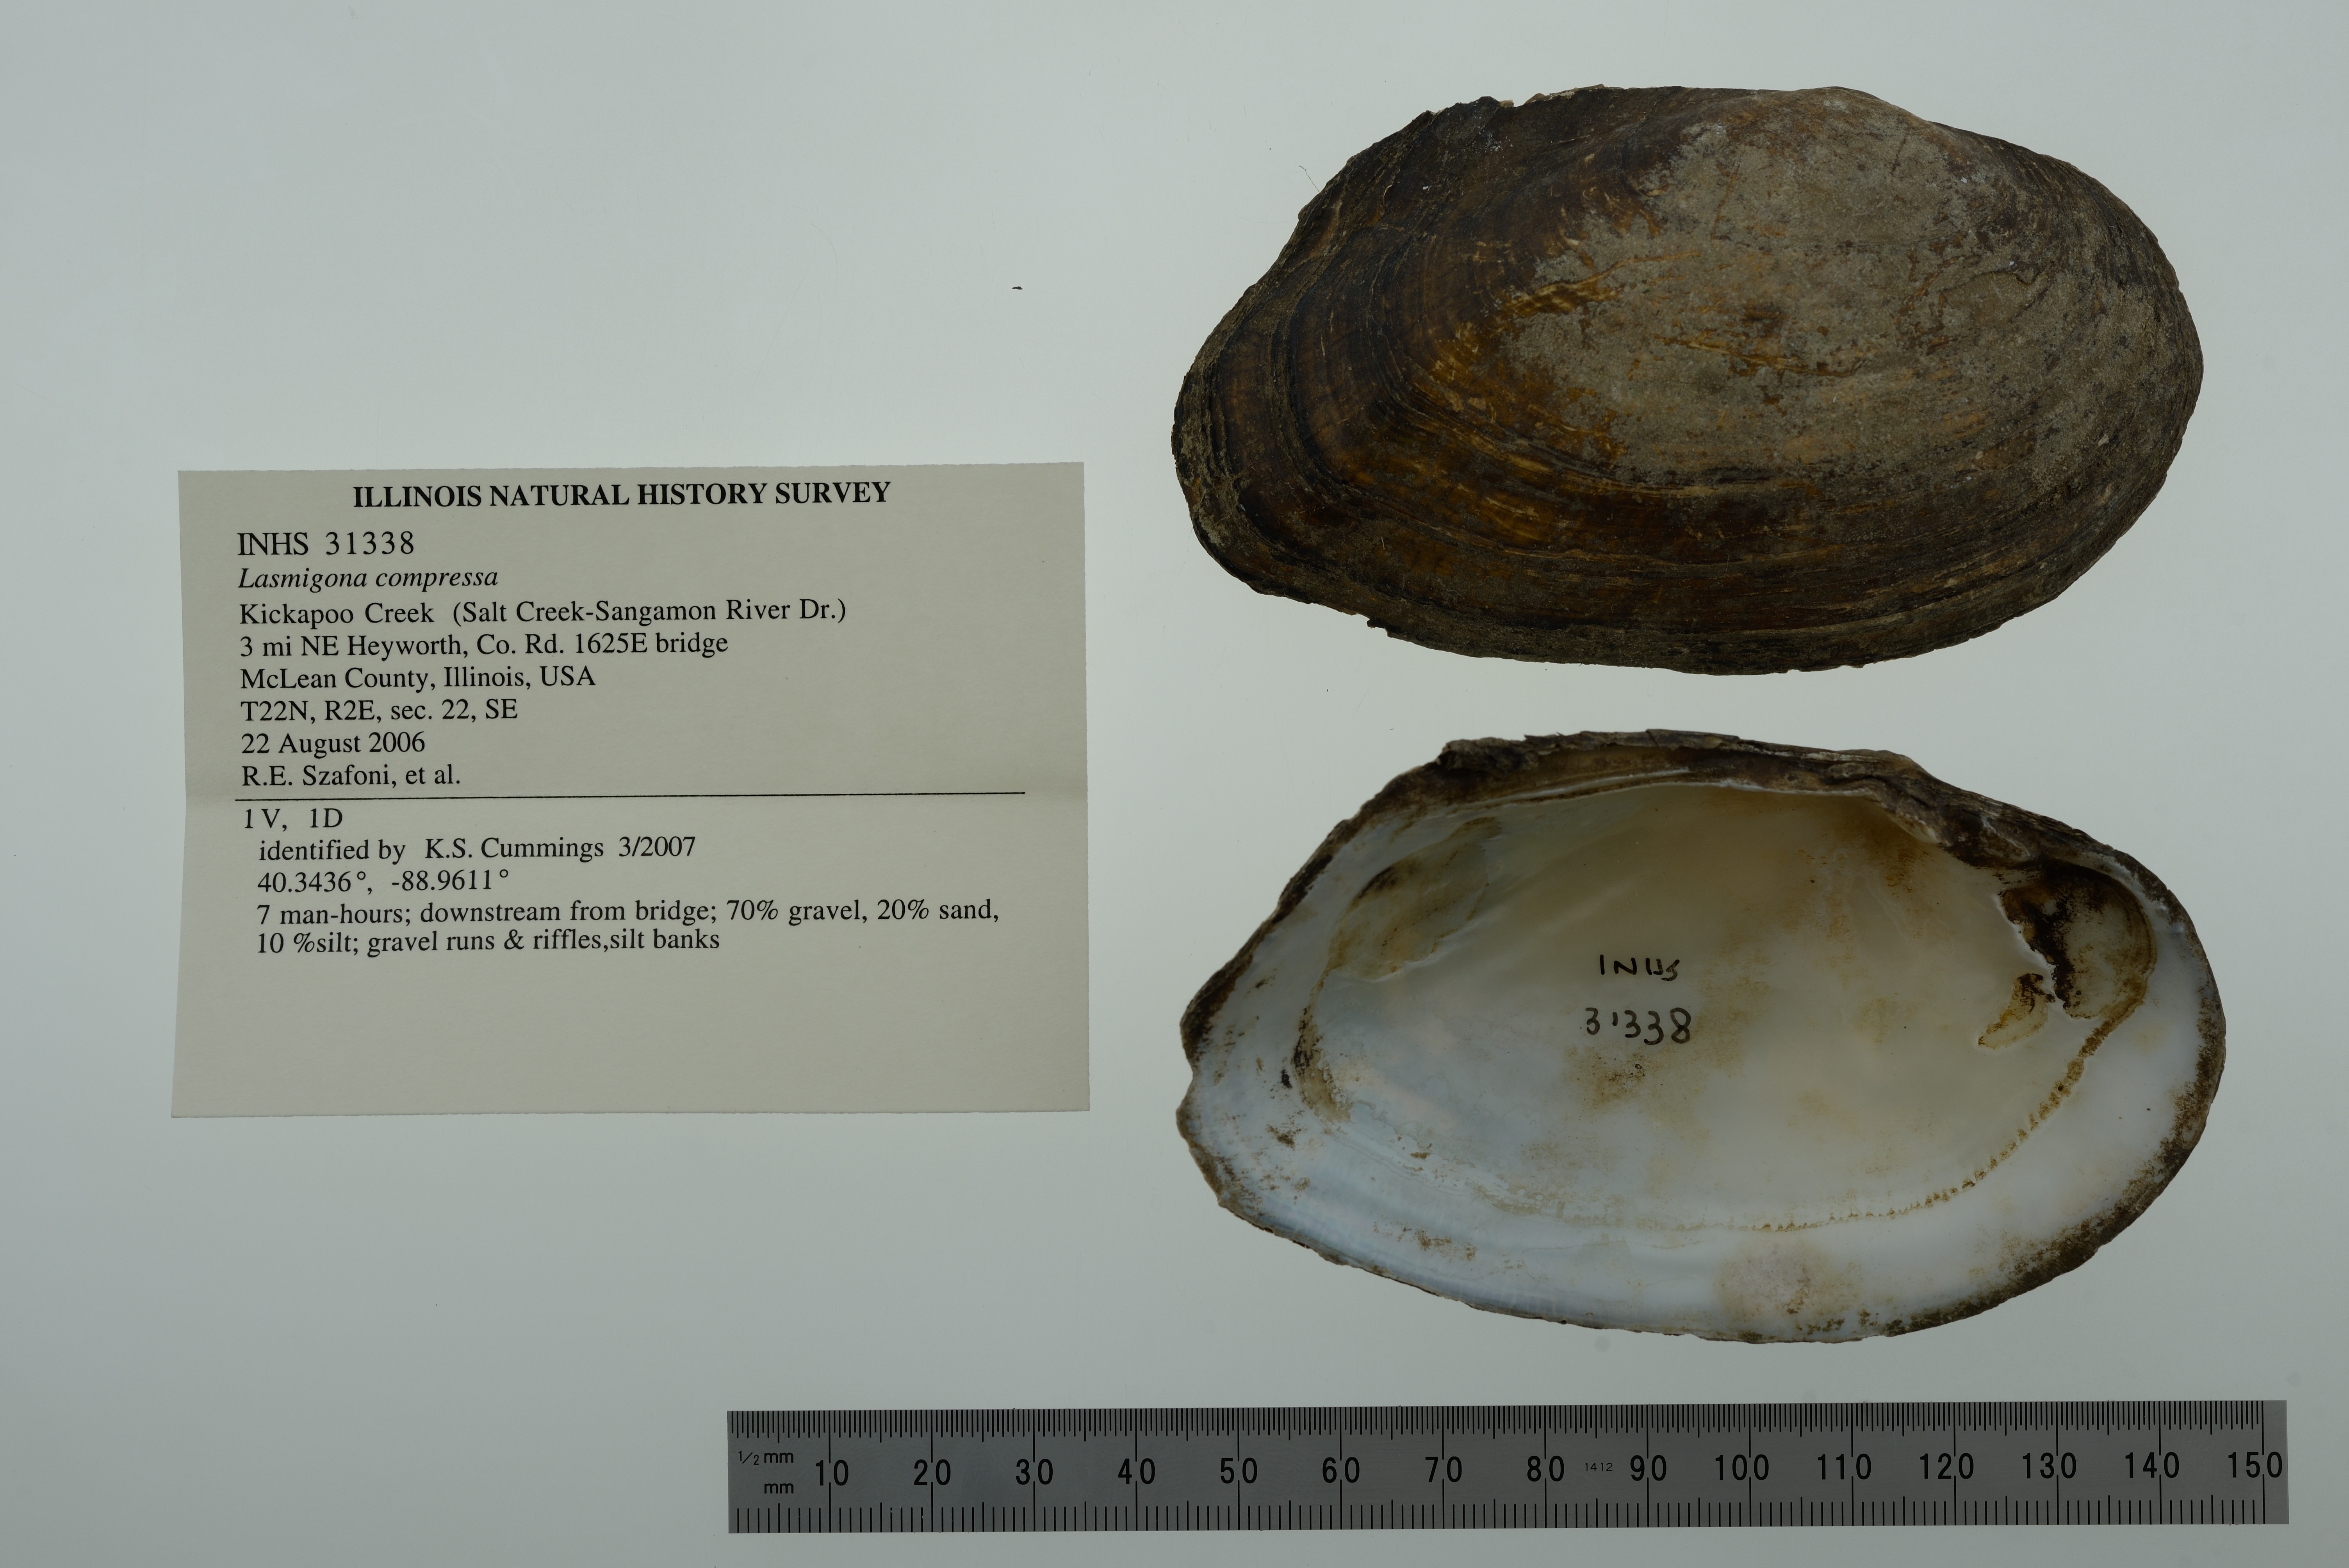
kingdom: Animalia
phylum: Mollusca
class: Bivalvia
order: Unionida
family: Unionidae
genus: Lasmigona
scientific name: Lasmigona compressa
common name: Creek heelsplitter
